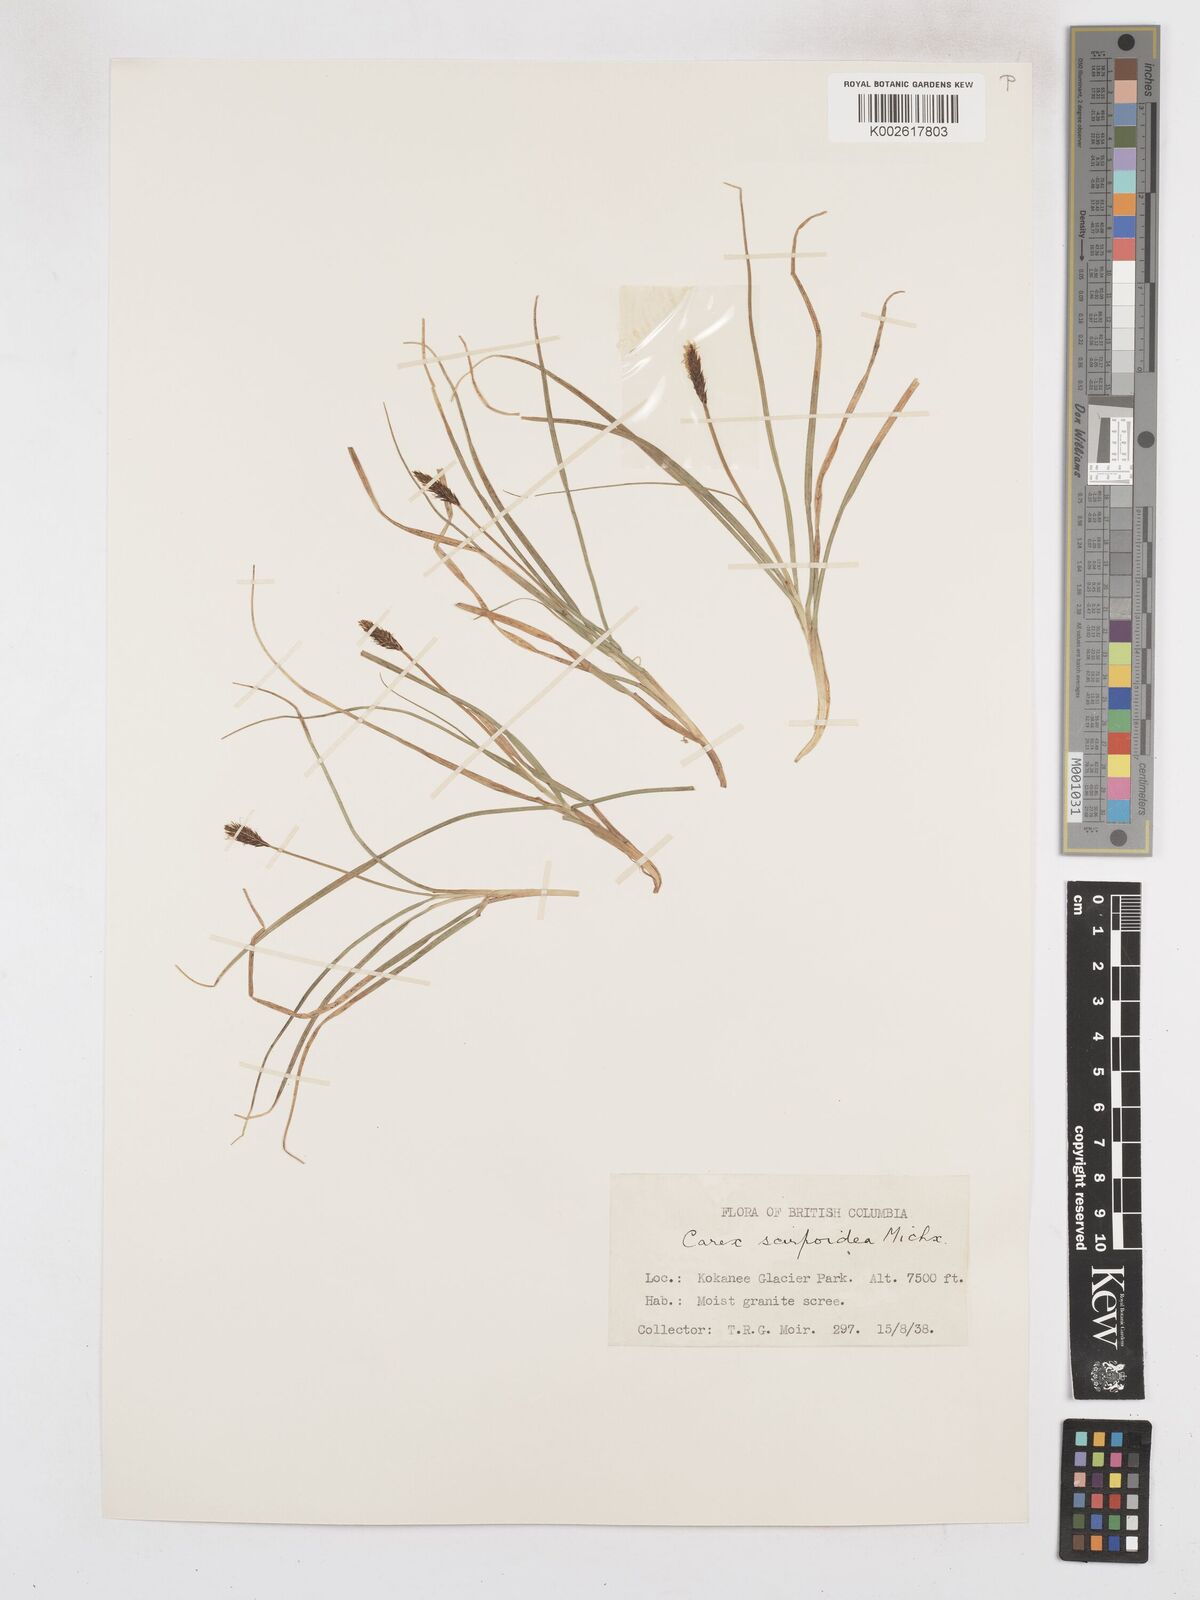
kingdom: Plantae
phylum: Tracheophyta
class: Liliopsida
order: Poales
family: Cyperaceae
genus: Carex
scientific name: Carex scirpoidea
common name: Canada single-spike sedge
